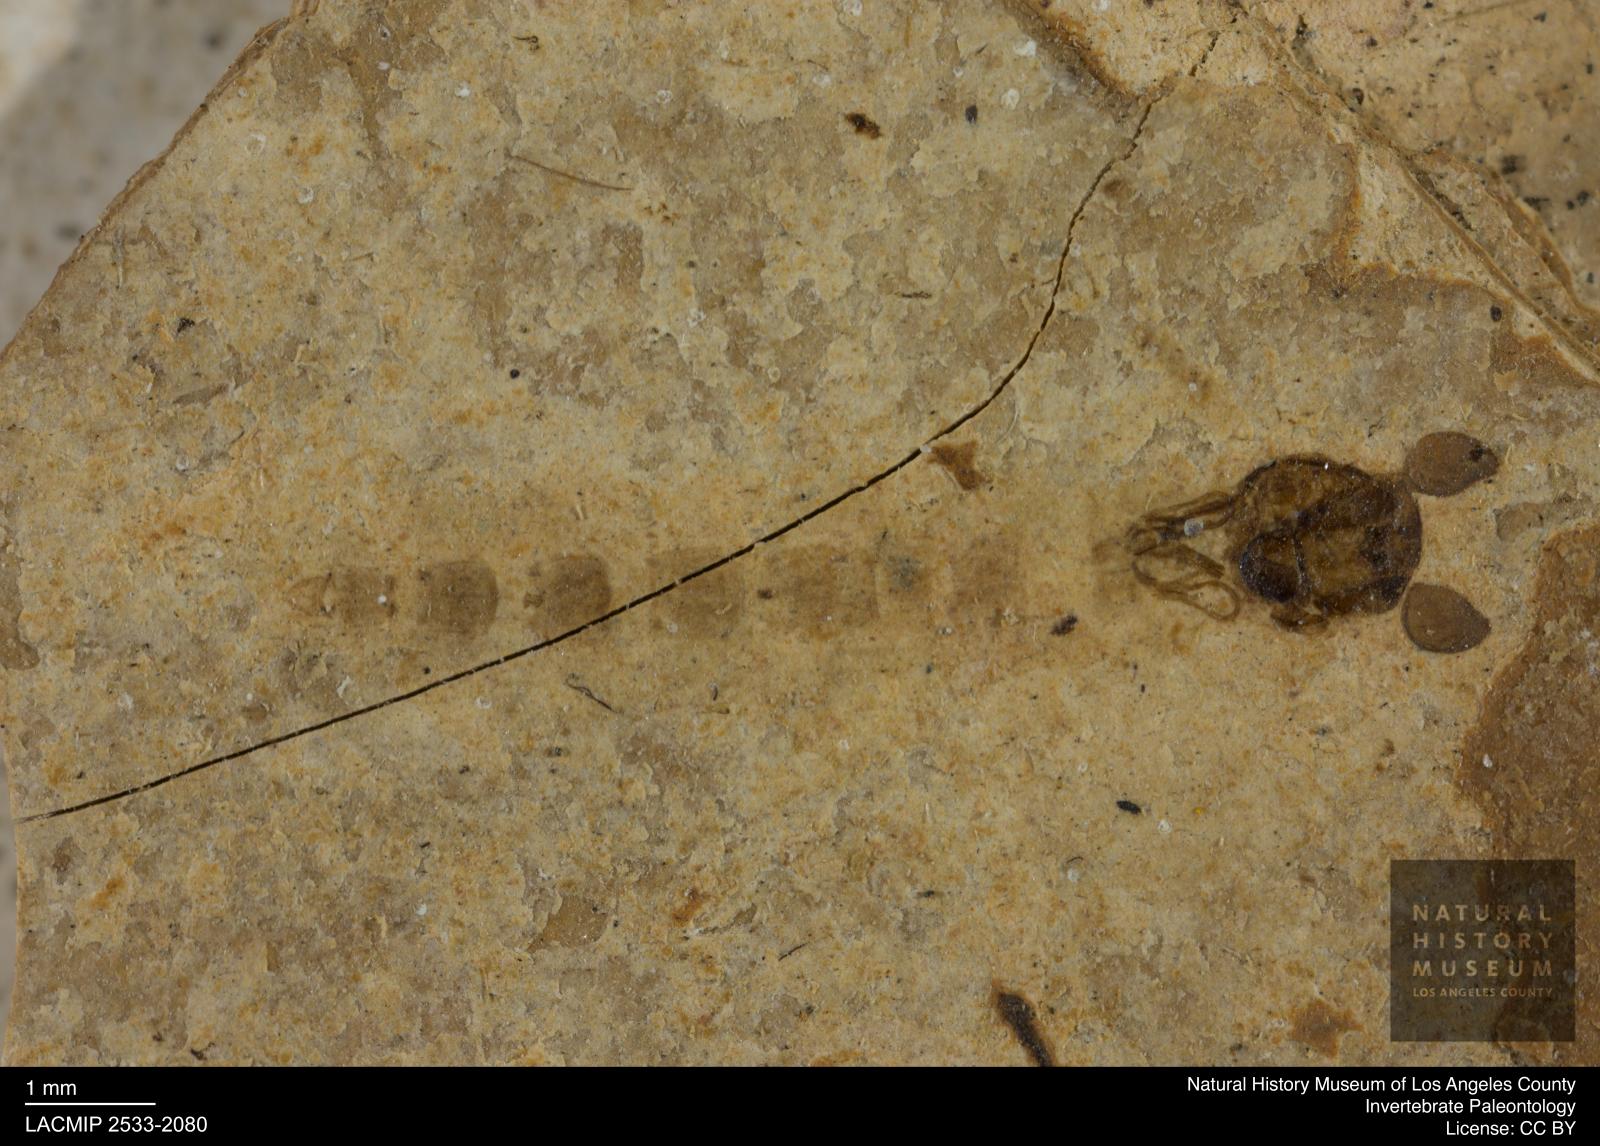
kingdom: Animalia
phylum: Arthropoda
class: Insecta
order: Diptera
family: Chironomidae
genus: Pelopiina
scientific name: Pelopiina
